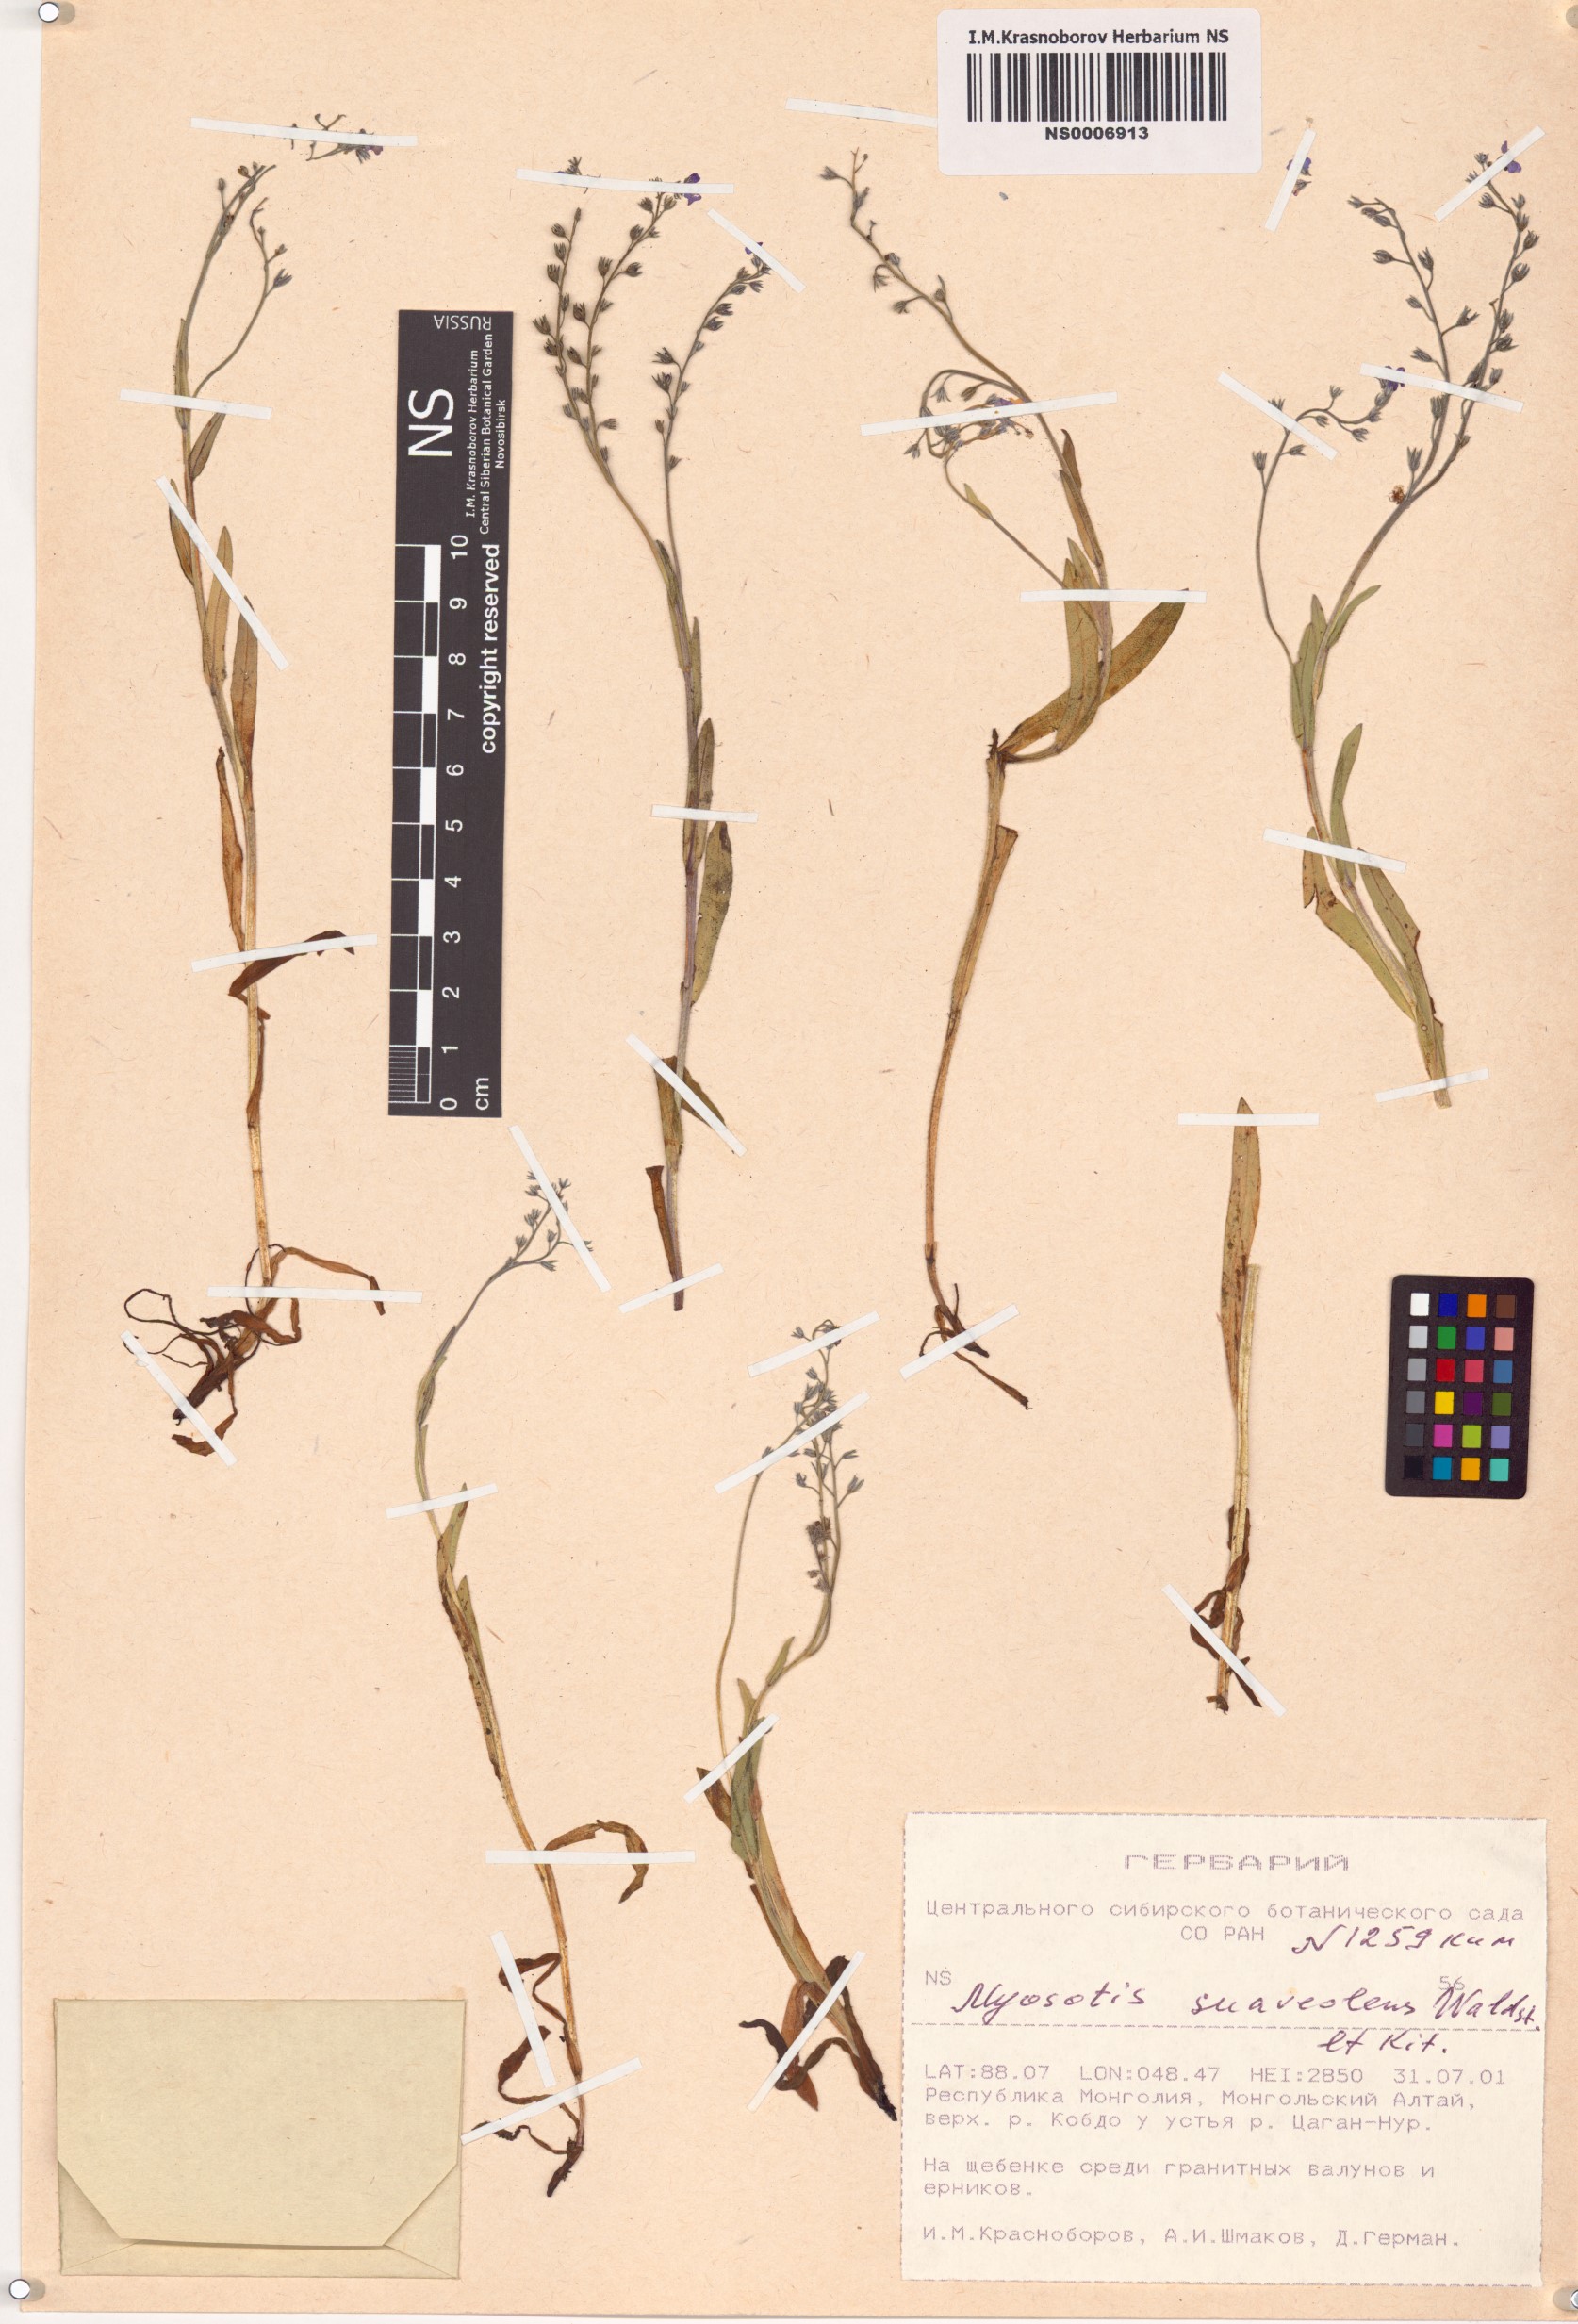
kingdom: Plantae
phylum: Tracheophyta
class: Magnoliopsida
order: Boraginales
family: Boraginaceae
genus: Myosotis
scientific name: Myosotis alpestris
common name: Alpine forget-me-not
